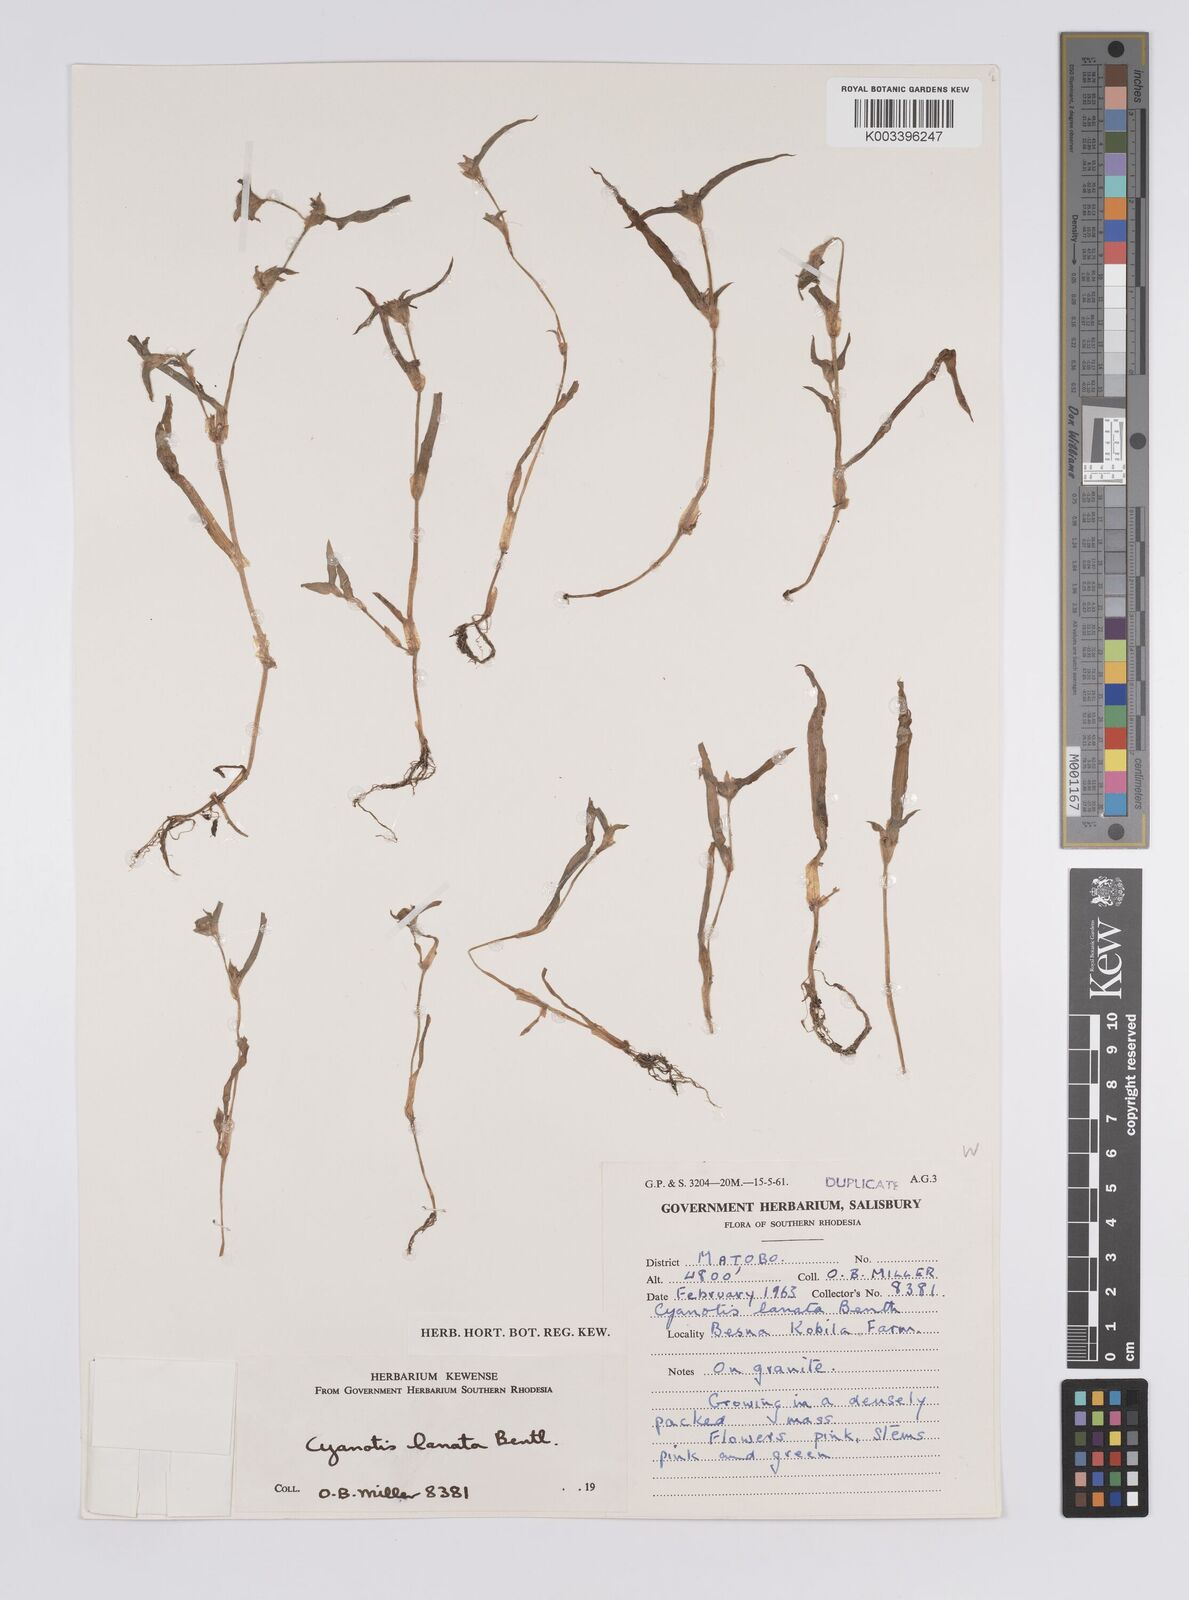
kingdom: Plantae
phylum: Tracheophyta
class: Liliopsida
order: Commelinales
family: Commelinaceae
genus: Cyanotis
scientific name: Cyanotis lanata
